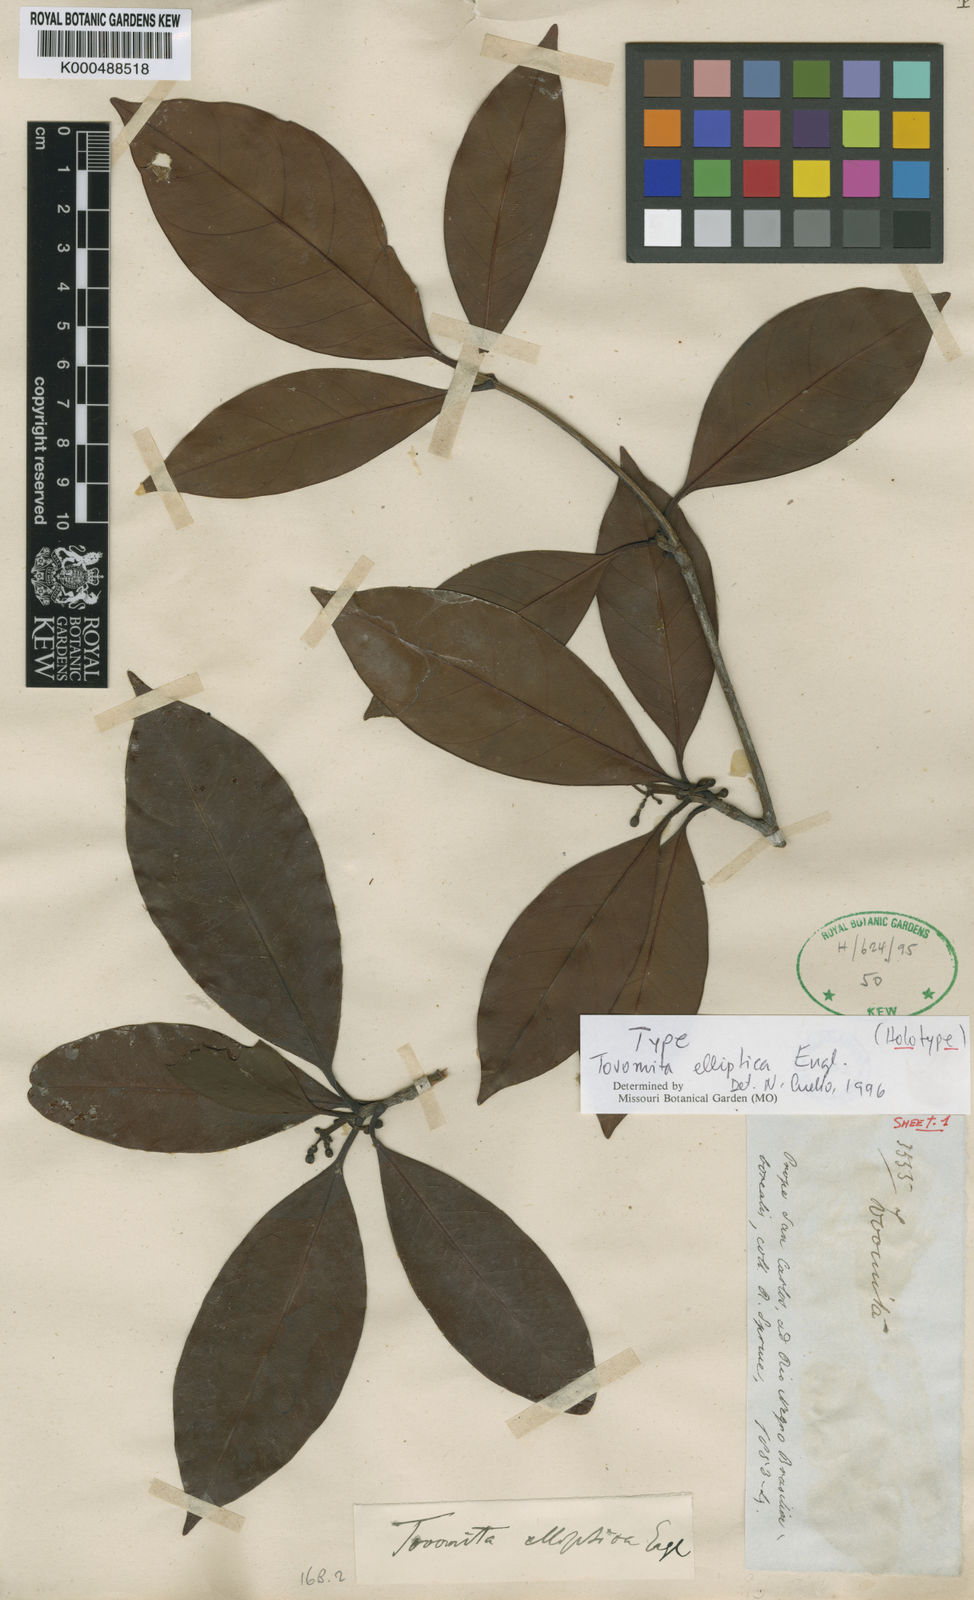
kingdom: Plantae
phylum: Tracheophyta
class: Magnoliopsida
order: Malpighiales
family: Clusiaceae
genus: Tovomita
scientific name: Tovomita elliptica
